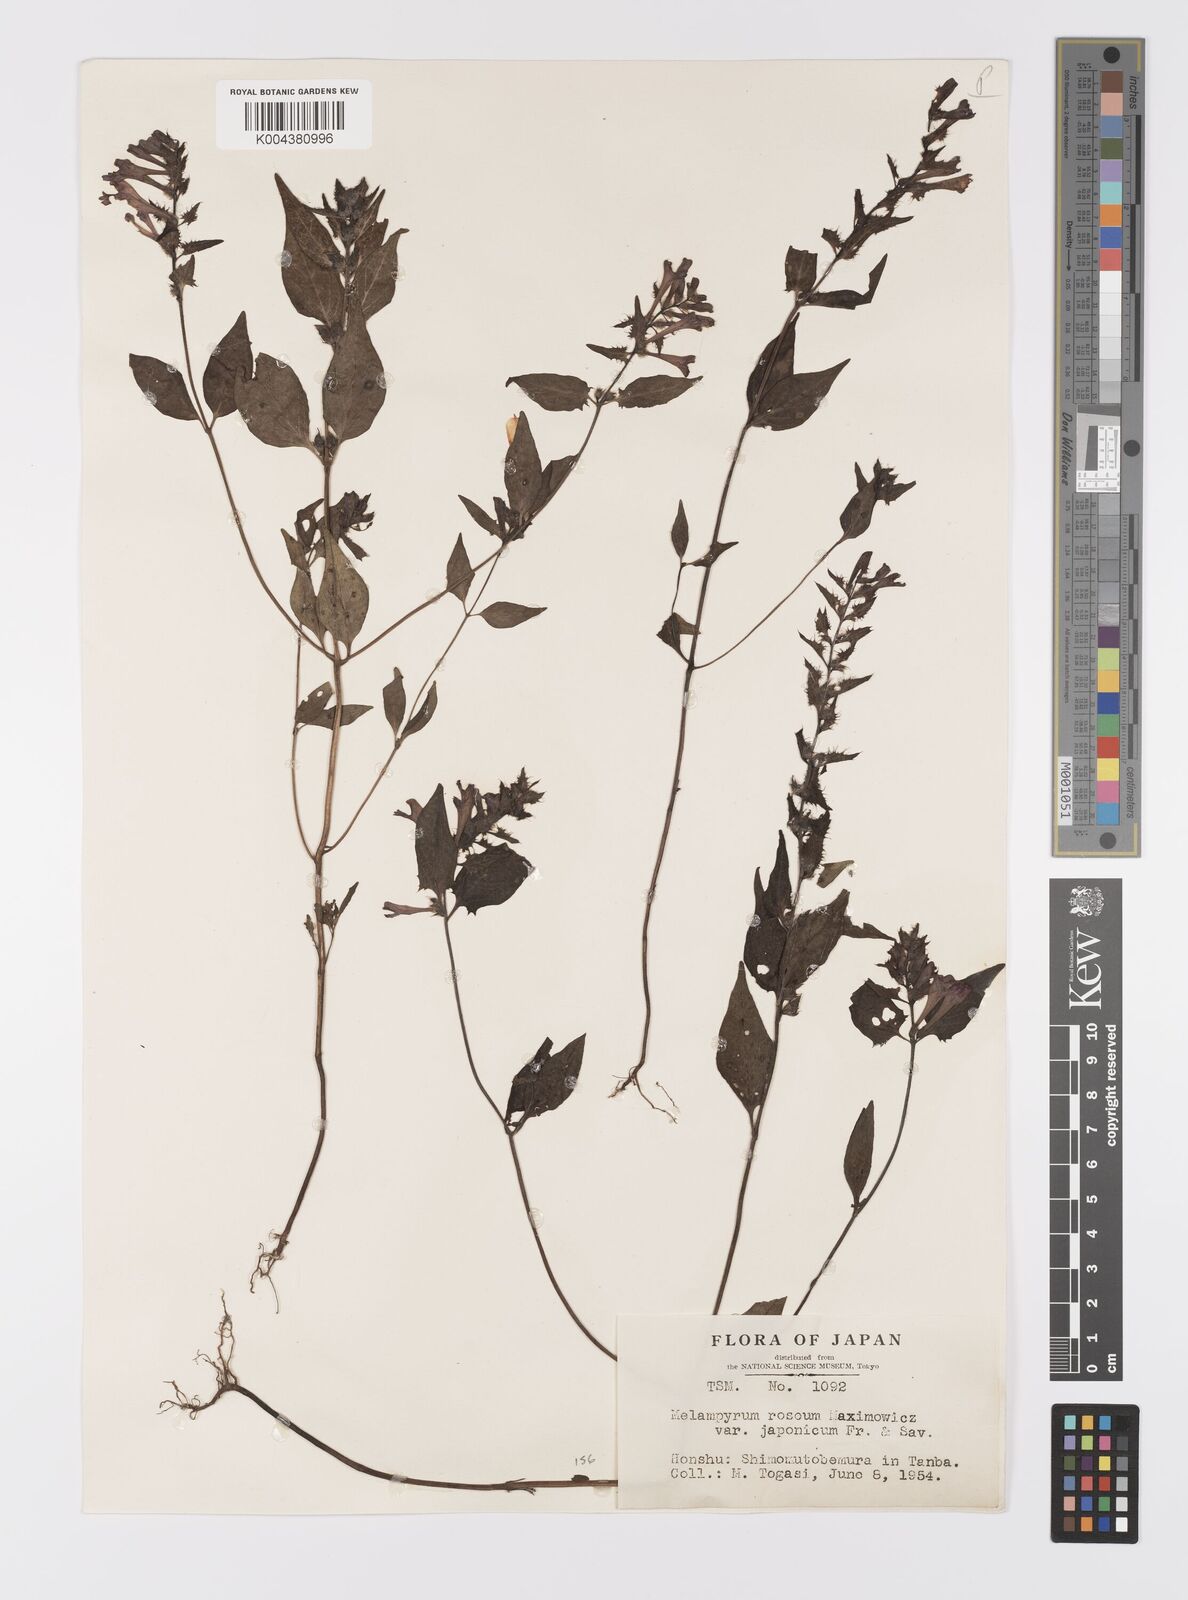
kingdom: Plantae
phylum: Tracheophyta
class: Magnoliopsida
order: Lamiales
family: Orobanchaceae
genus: Melampyrum
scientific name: Melampyrum roseum
